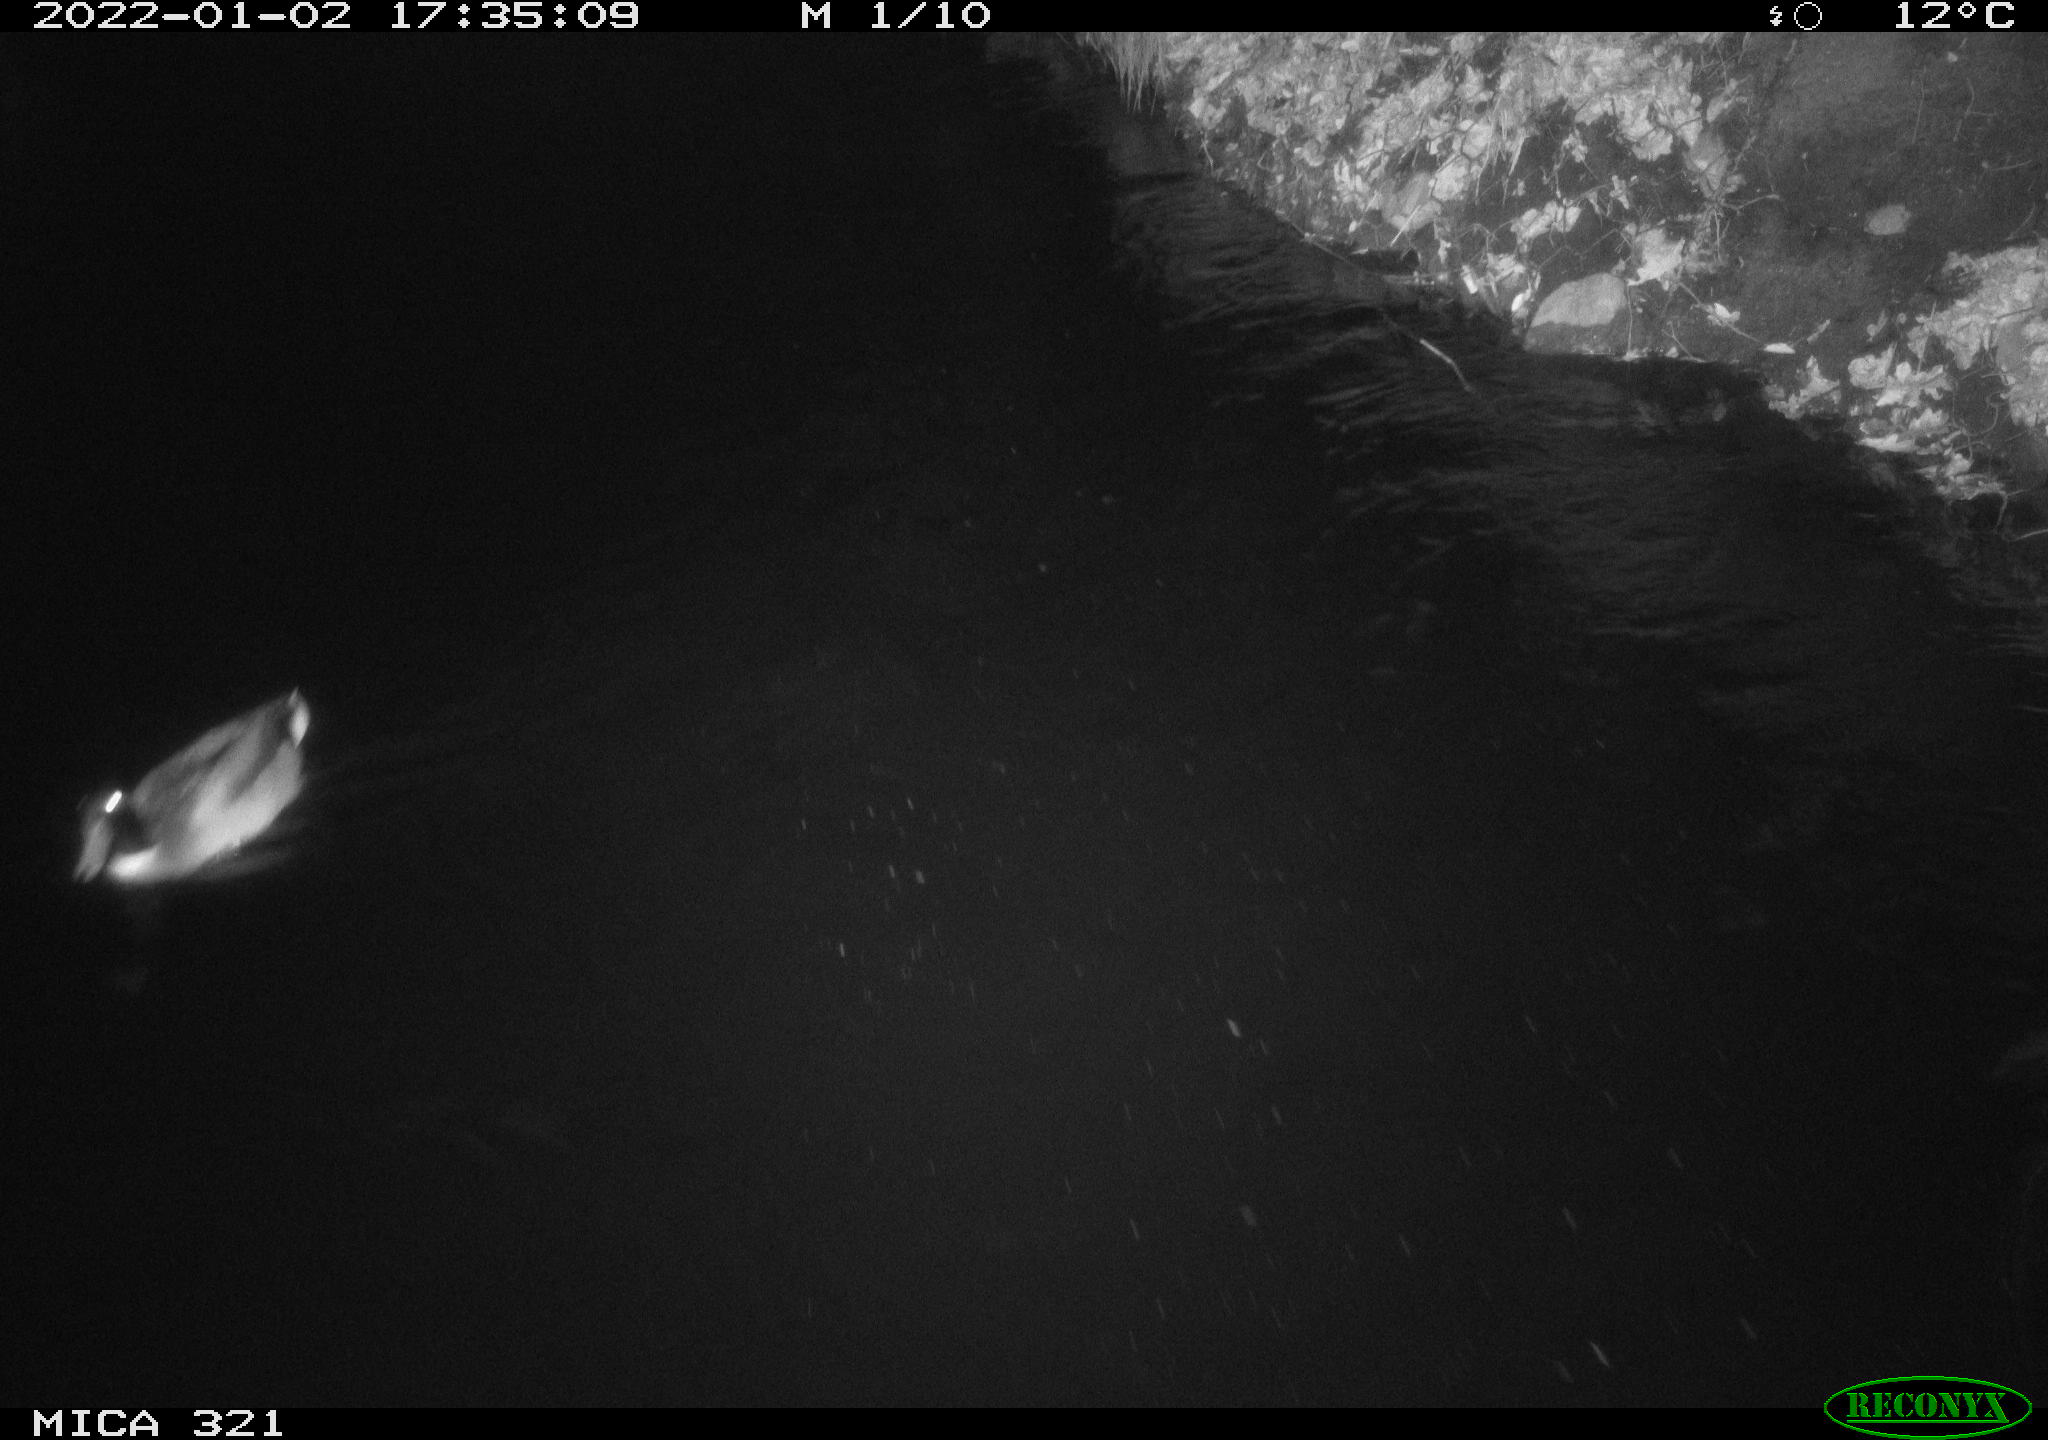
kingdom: Animalia
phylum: Chordata
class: Aves
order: Anseriformes
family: Anatidae
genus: Anas
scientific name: Anas
